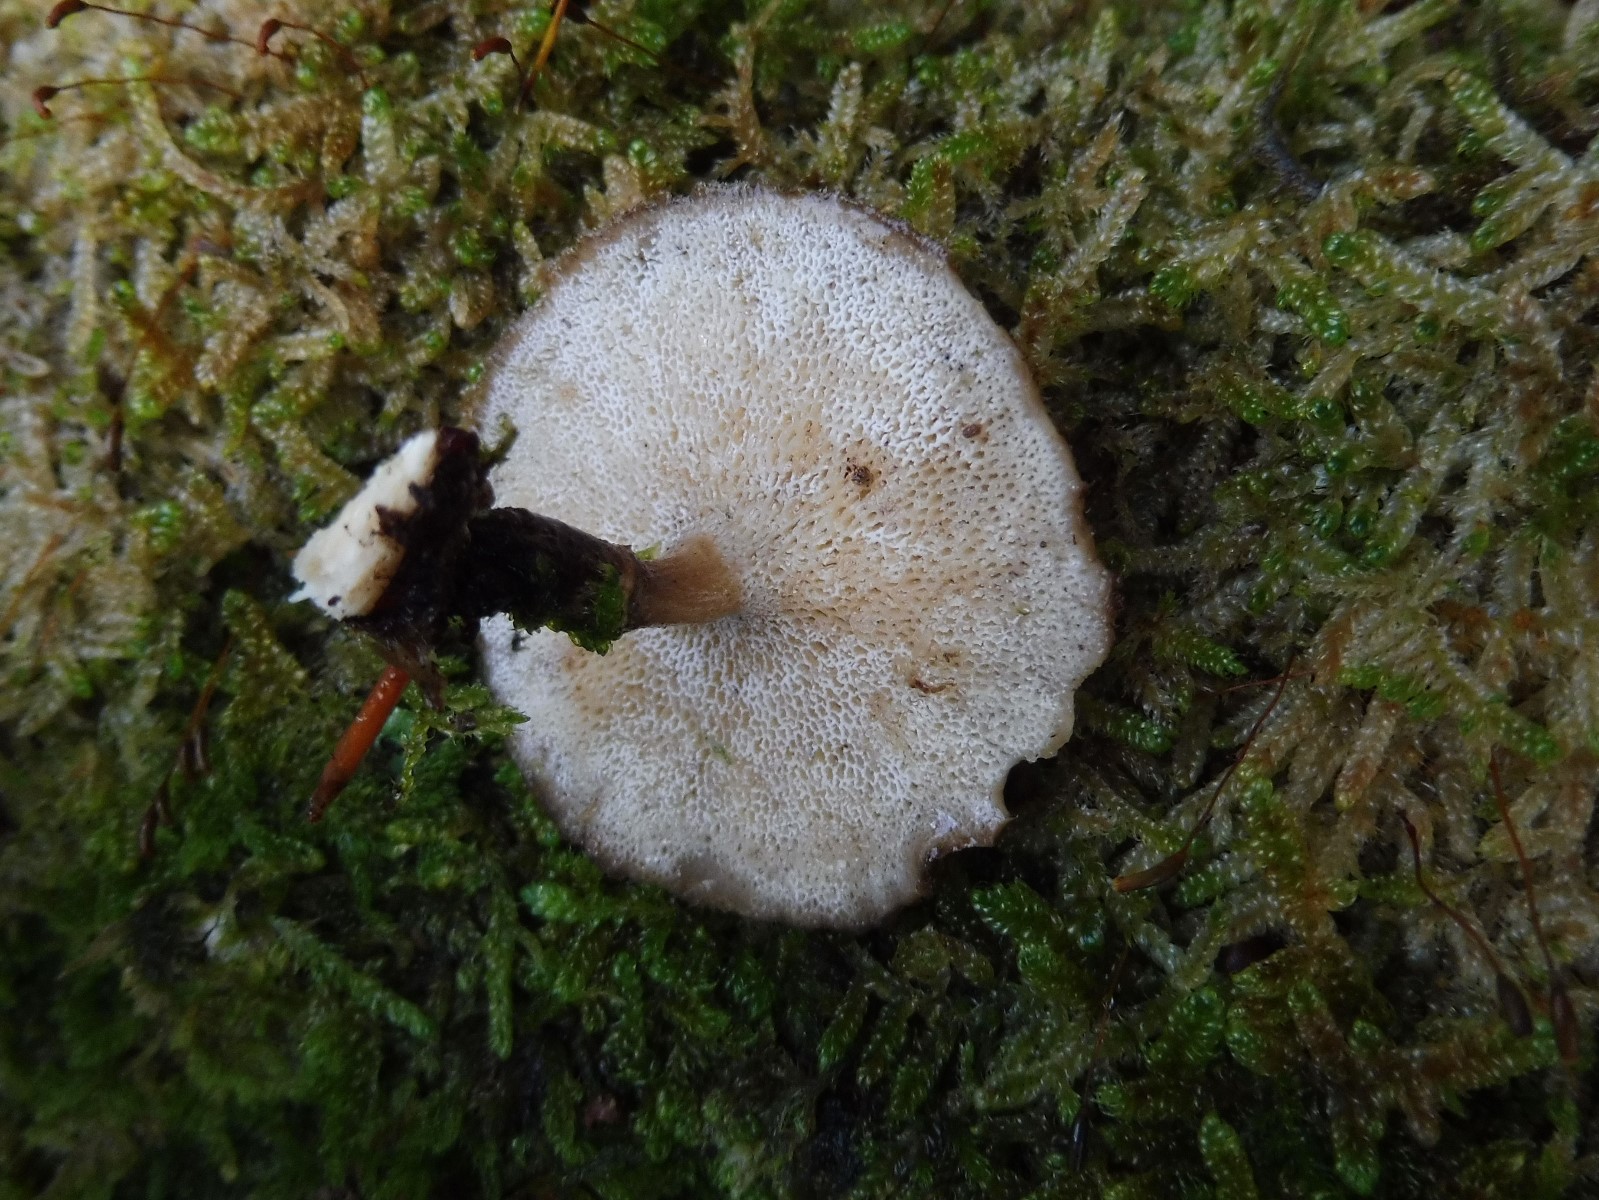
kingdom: Fungi
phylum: Basidiomycota
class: Agaricomycetes
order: Polyporales
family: Polyporaceae
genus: Lentinus
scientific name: Lentinus brumalis
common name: vinter-stilkporesvamp
